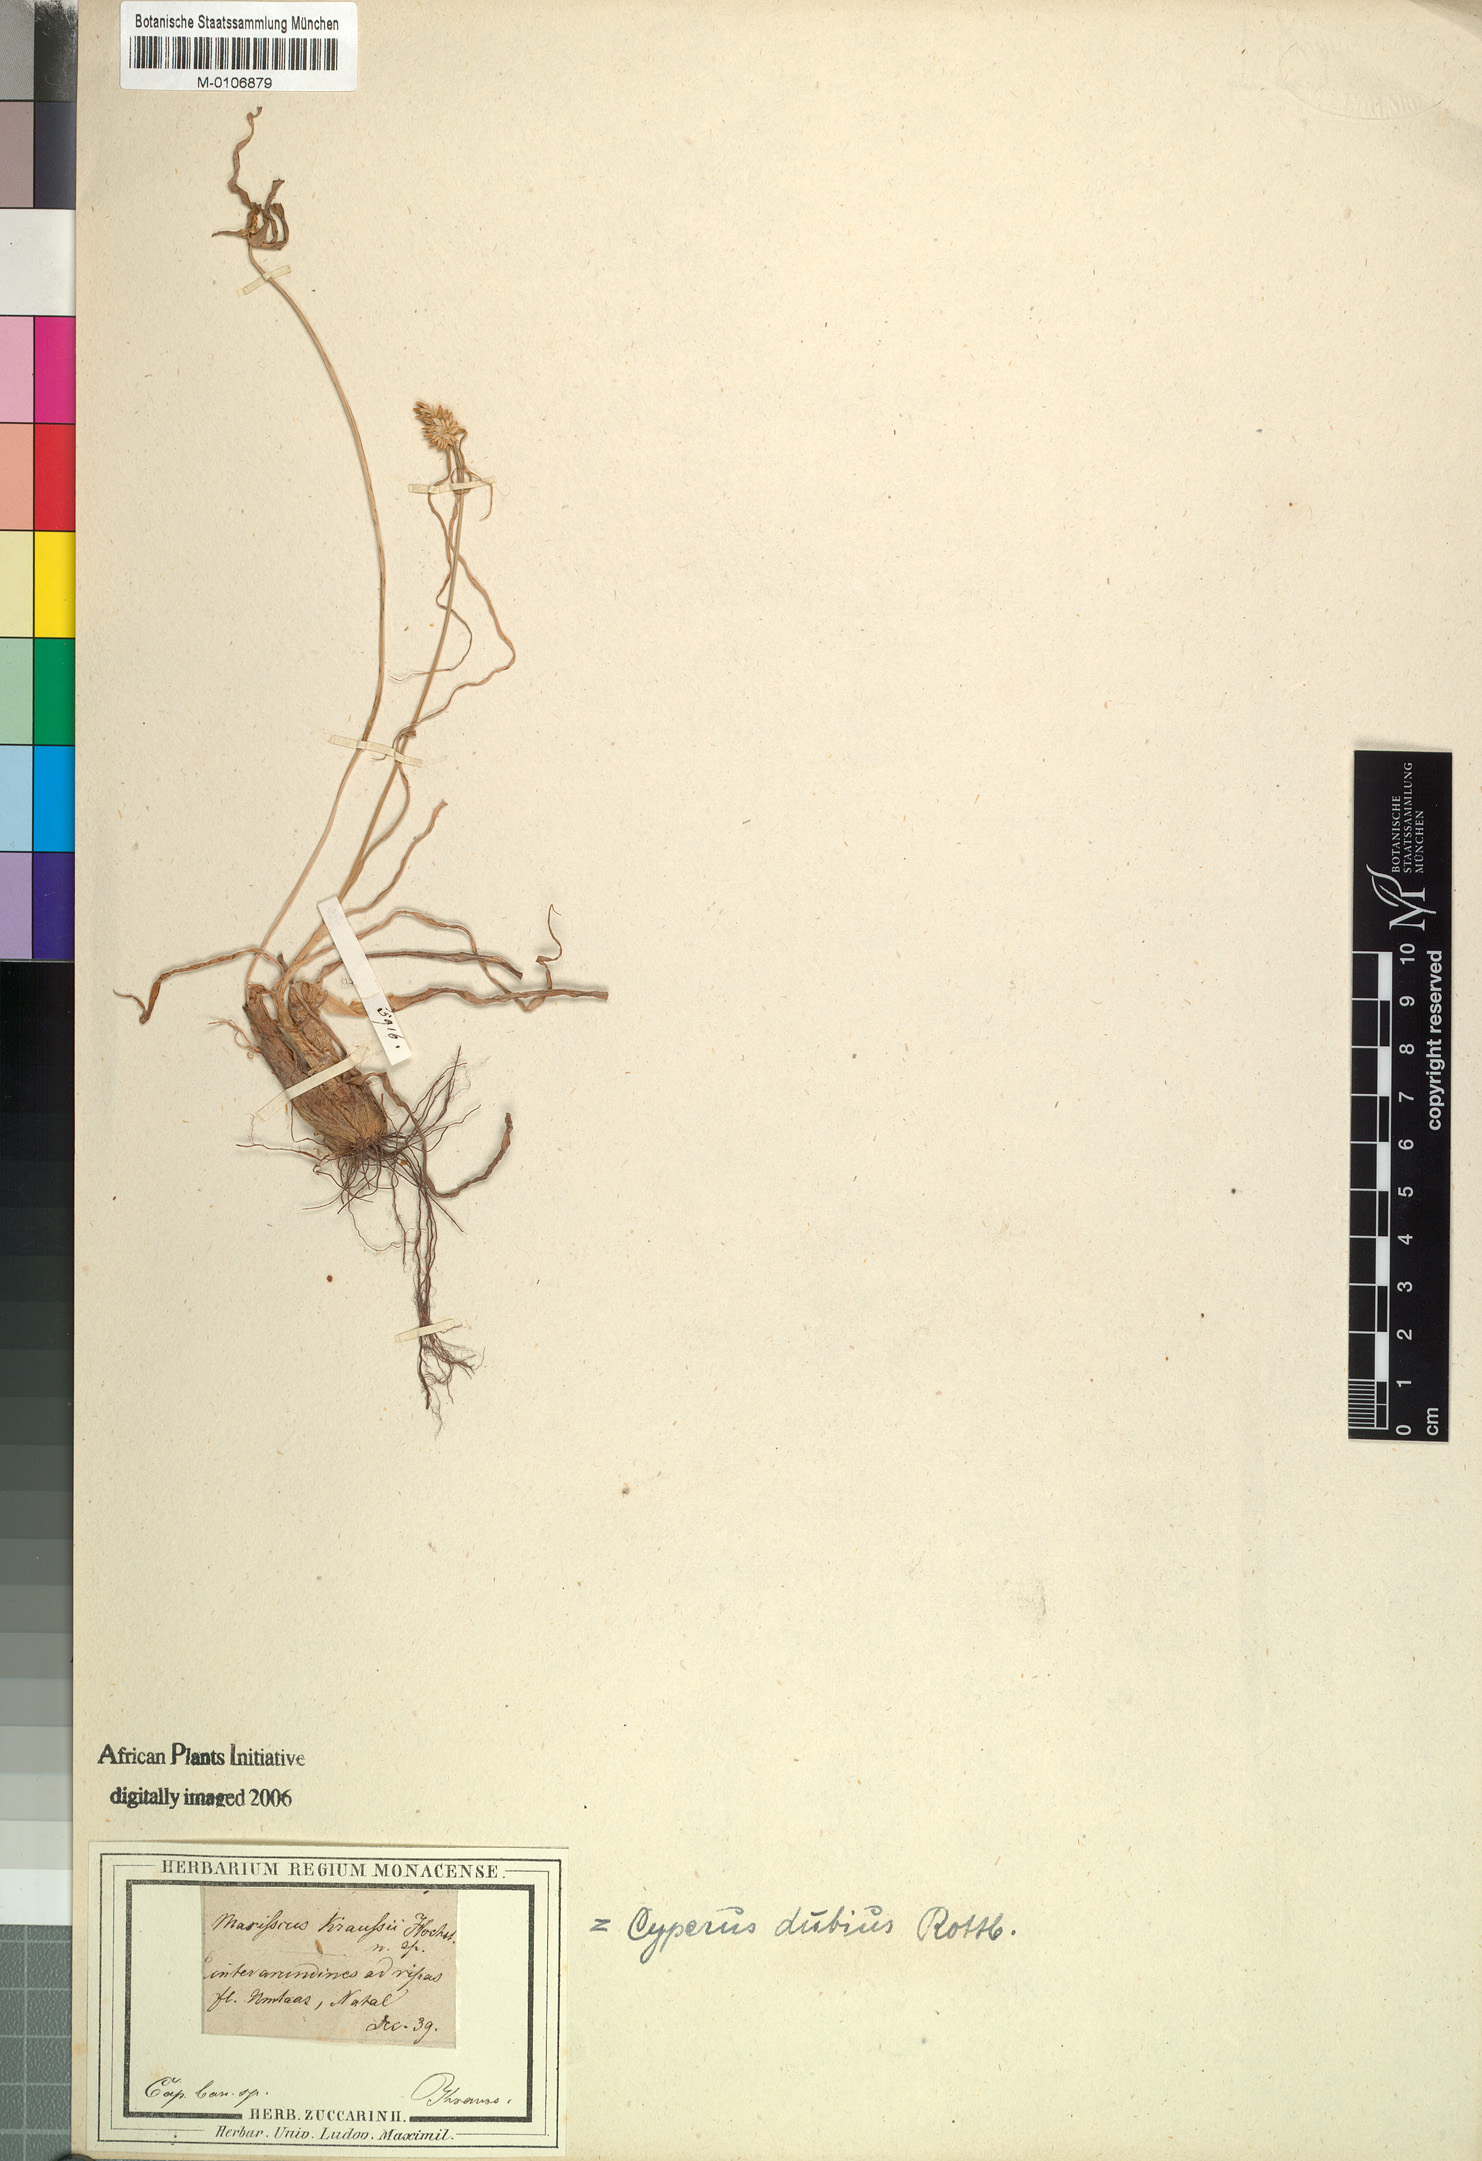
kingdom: Plantae
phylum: Tracheophyta
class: Liliopsida
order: Poales
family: Cyperaceae
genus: Cyperus
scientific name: Cyperus dubius
